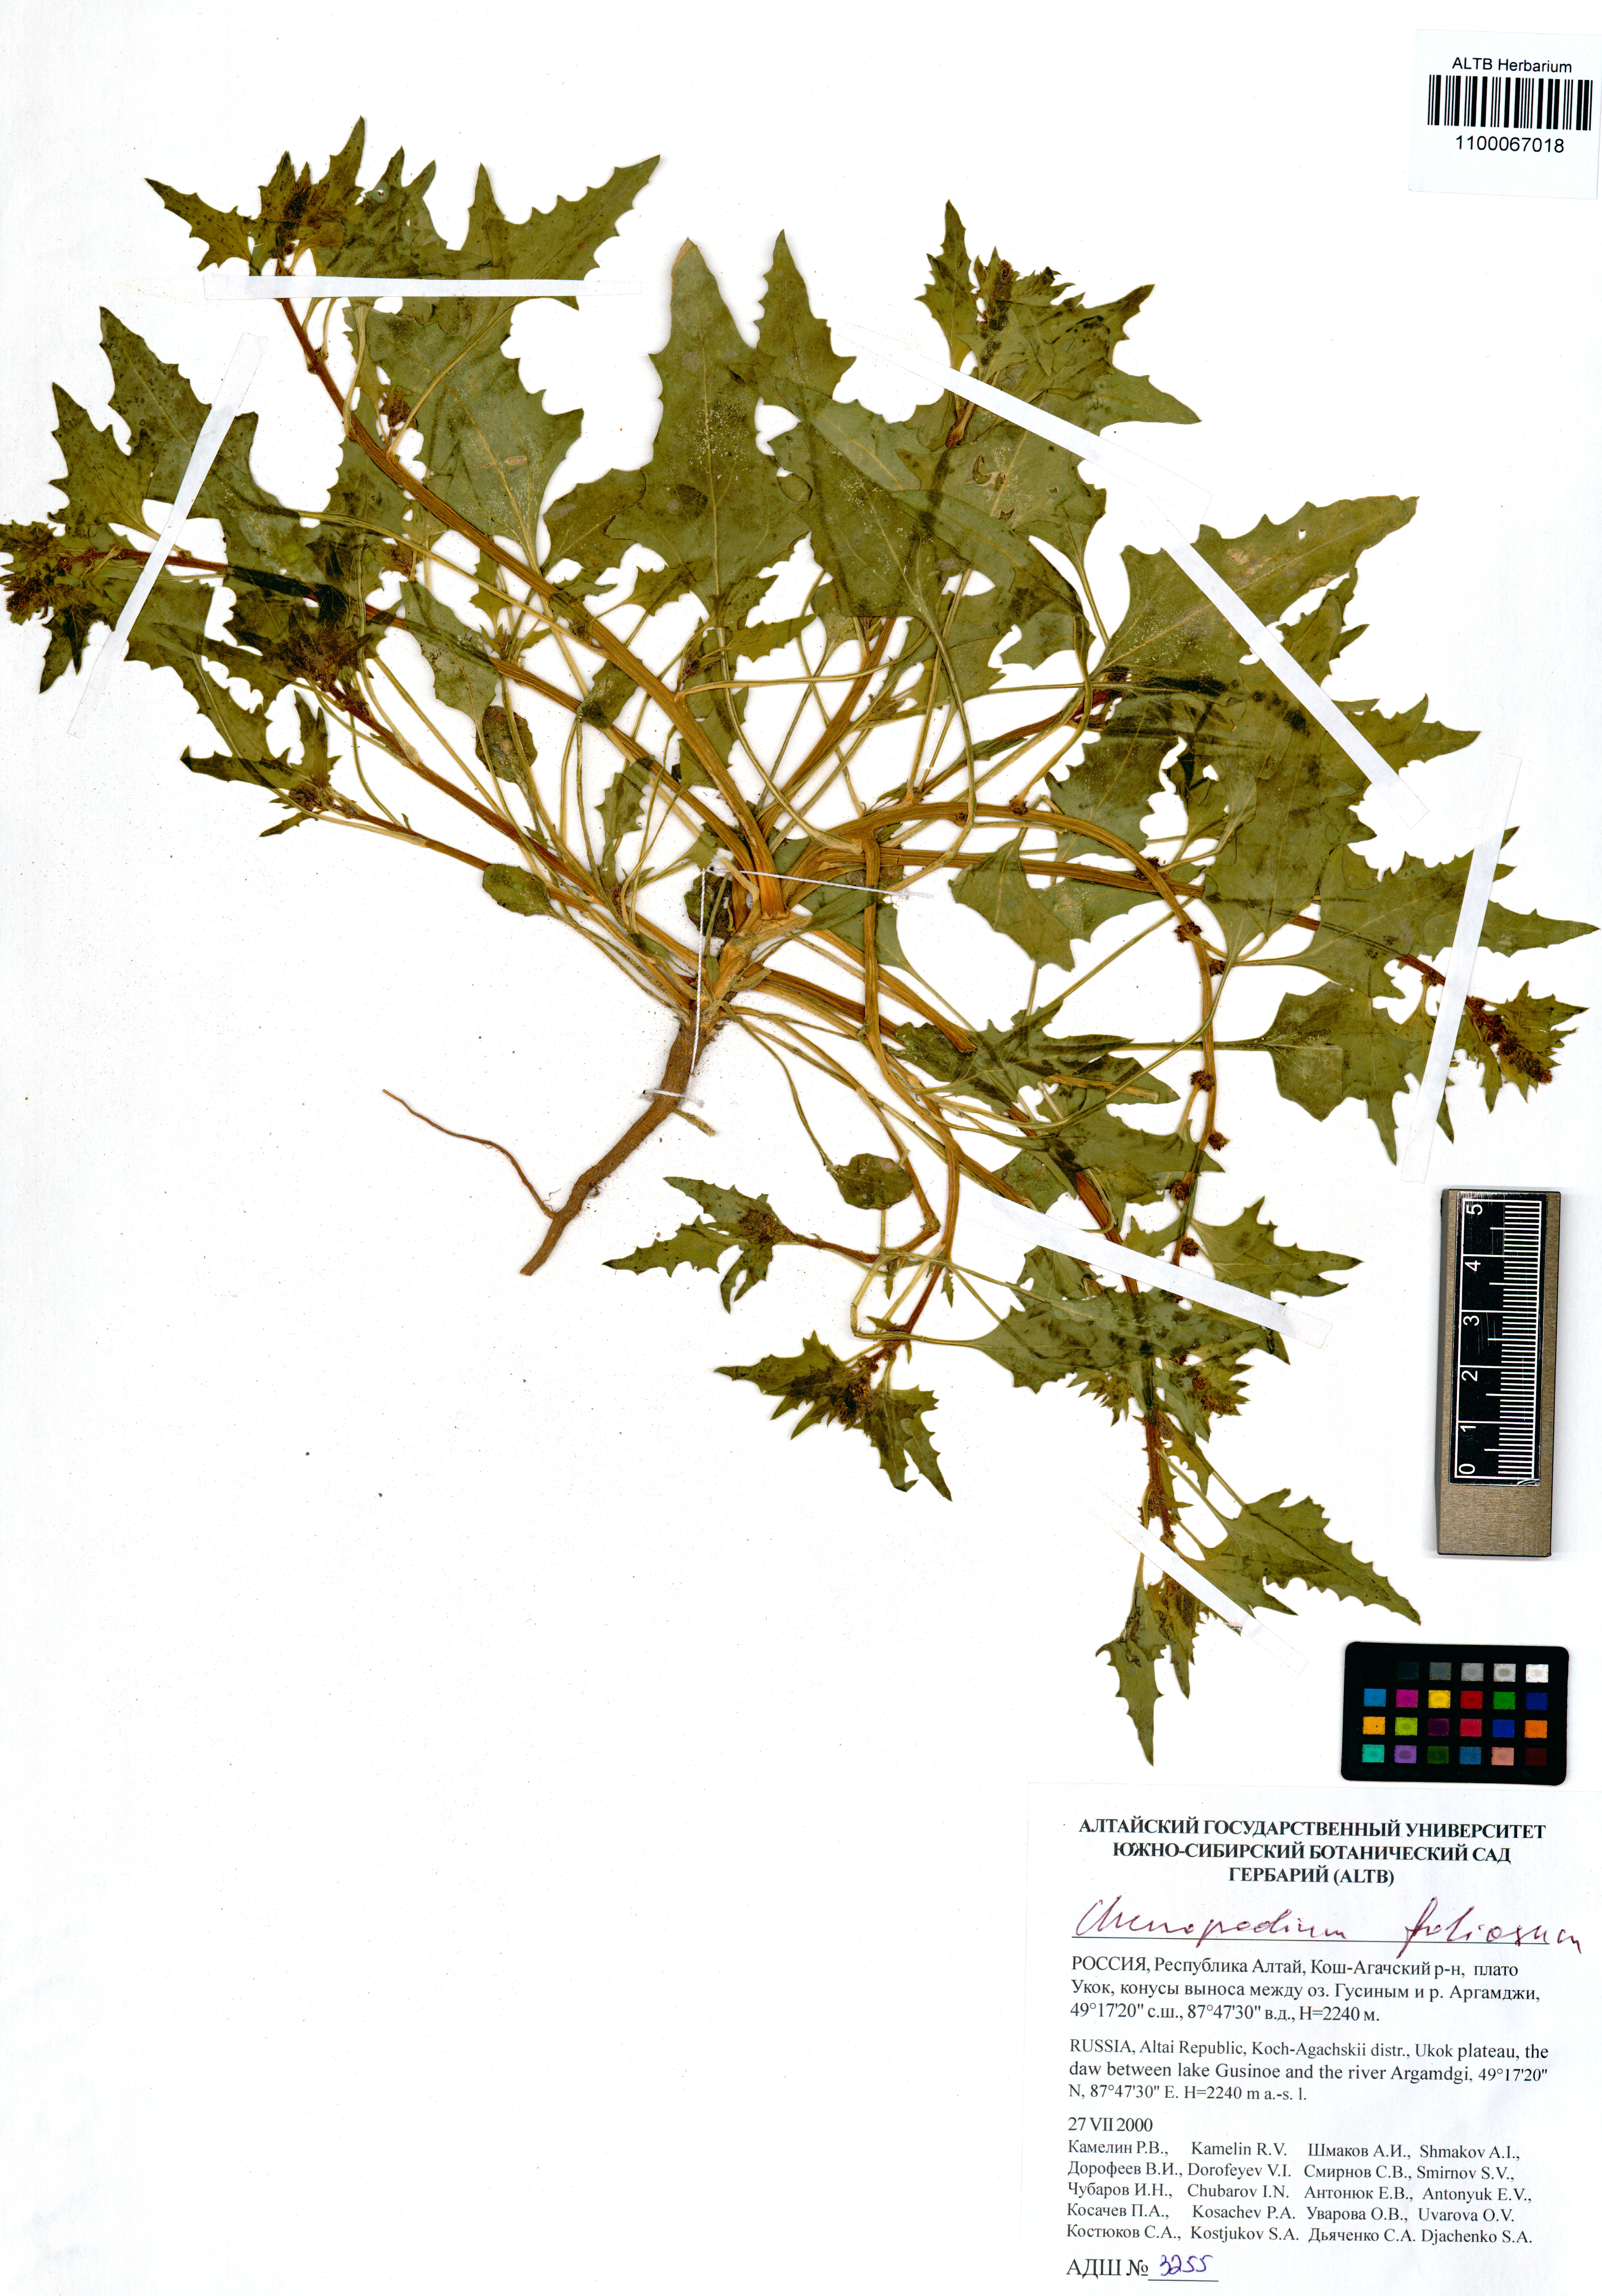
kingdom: Plantae
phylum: Tracheophyta
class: Magnoliopsida
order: Caryophyllales
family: Amaranthaceae
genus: Blitum
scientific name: Blitum virgatum
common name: Strawberry goosefoot
